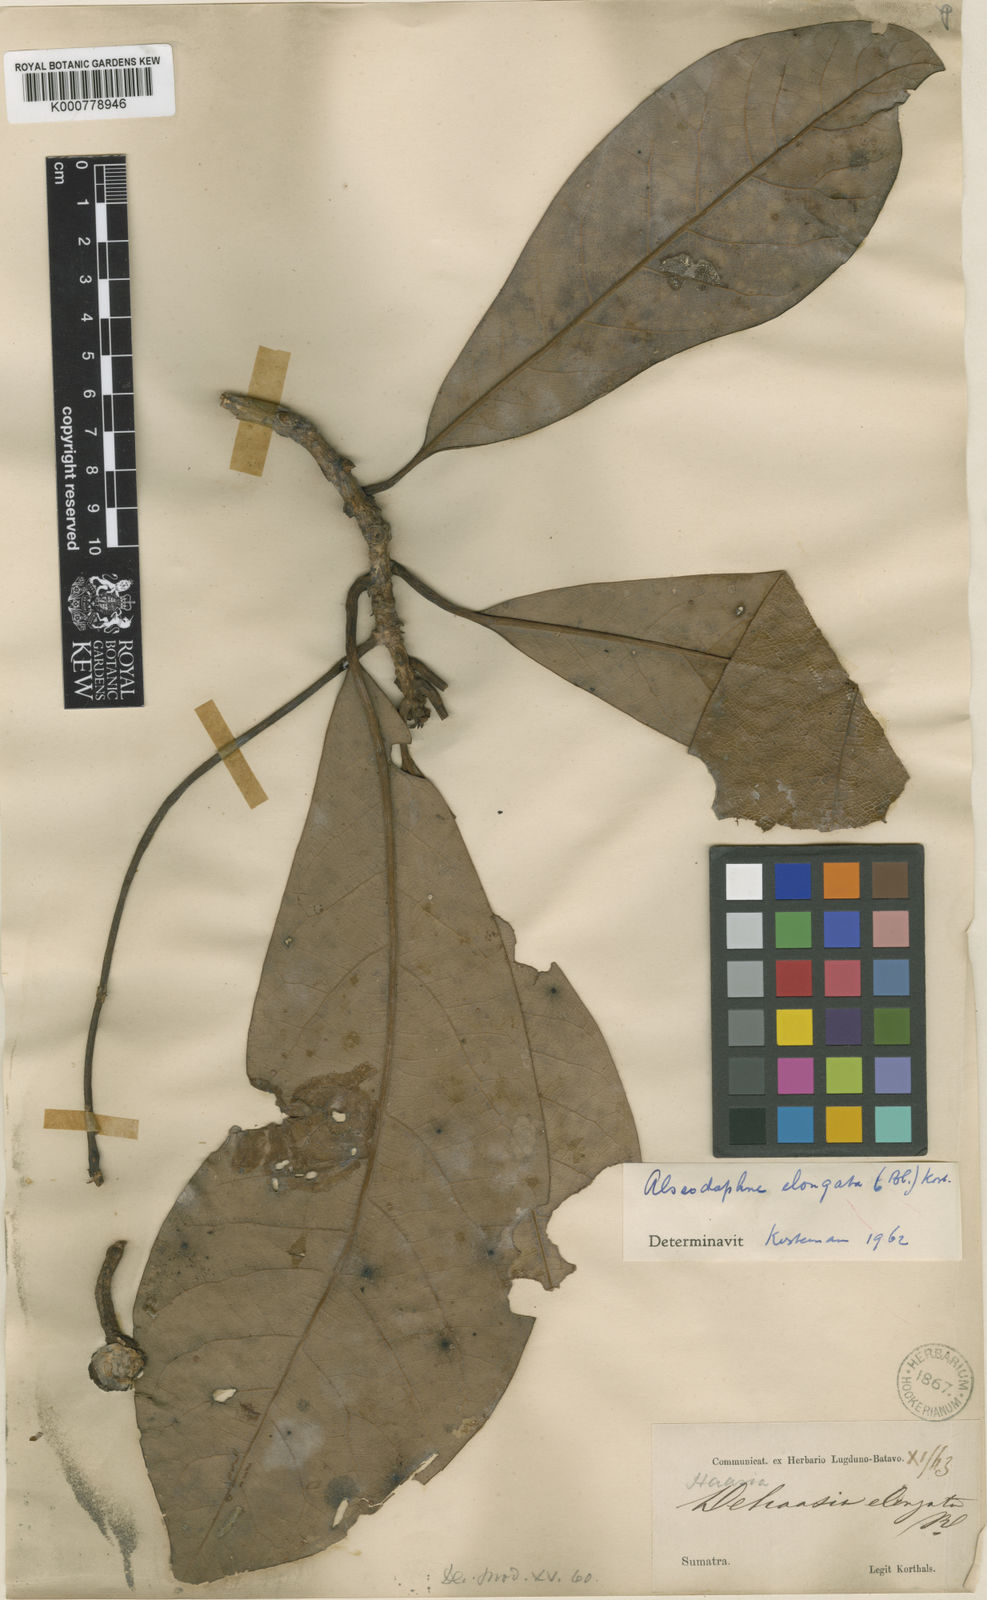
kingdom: Plantae
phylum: Tracheophyta
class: Magnoliopsida
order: Laurales
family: Lauraceae
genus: Alseodaphne
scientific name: Alseodaphne elongata
